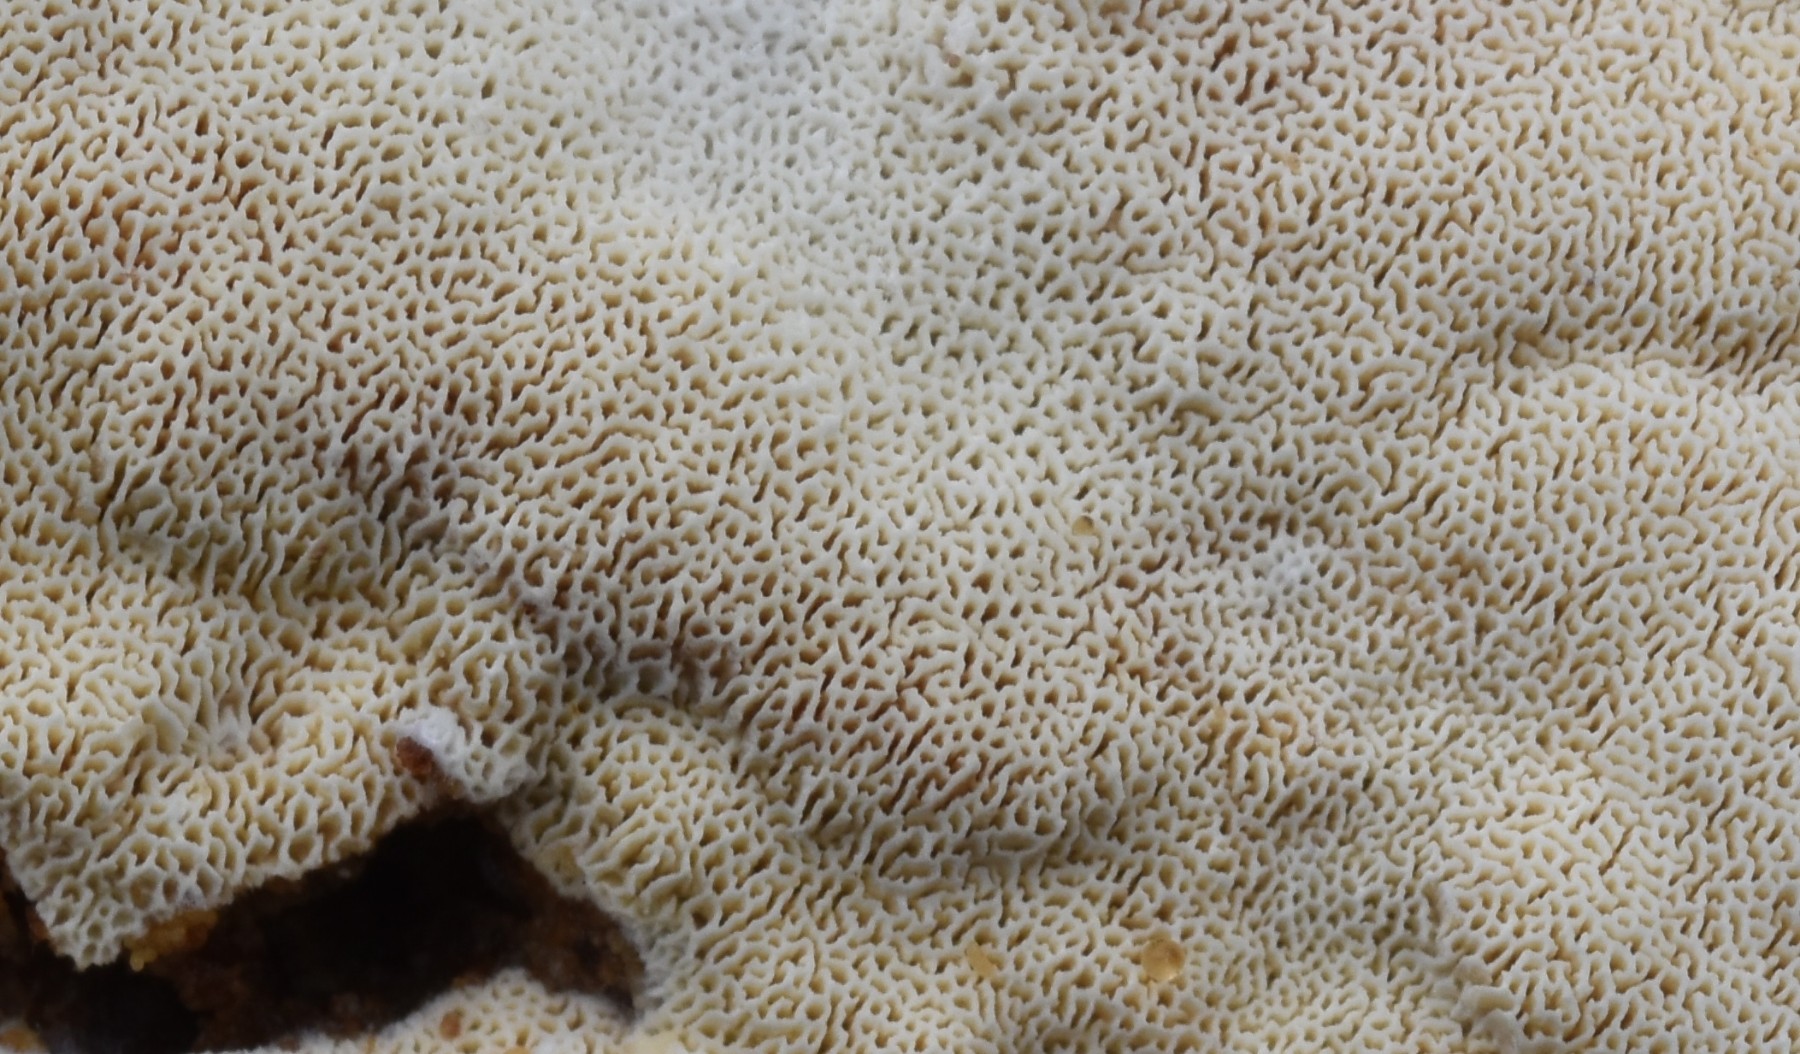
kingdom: Fungi
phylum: Basidiomycota
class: Agaricomycetes
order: Hymenochaetales
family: Schizoporaceae
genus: Schizopora
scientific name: Schizopora paradoxa
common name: hvid tandsvamp
